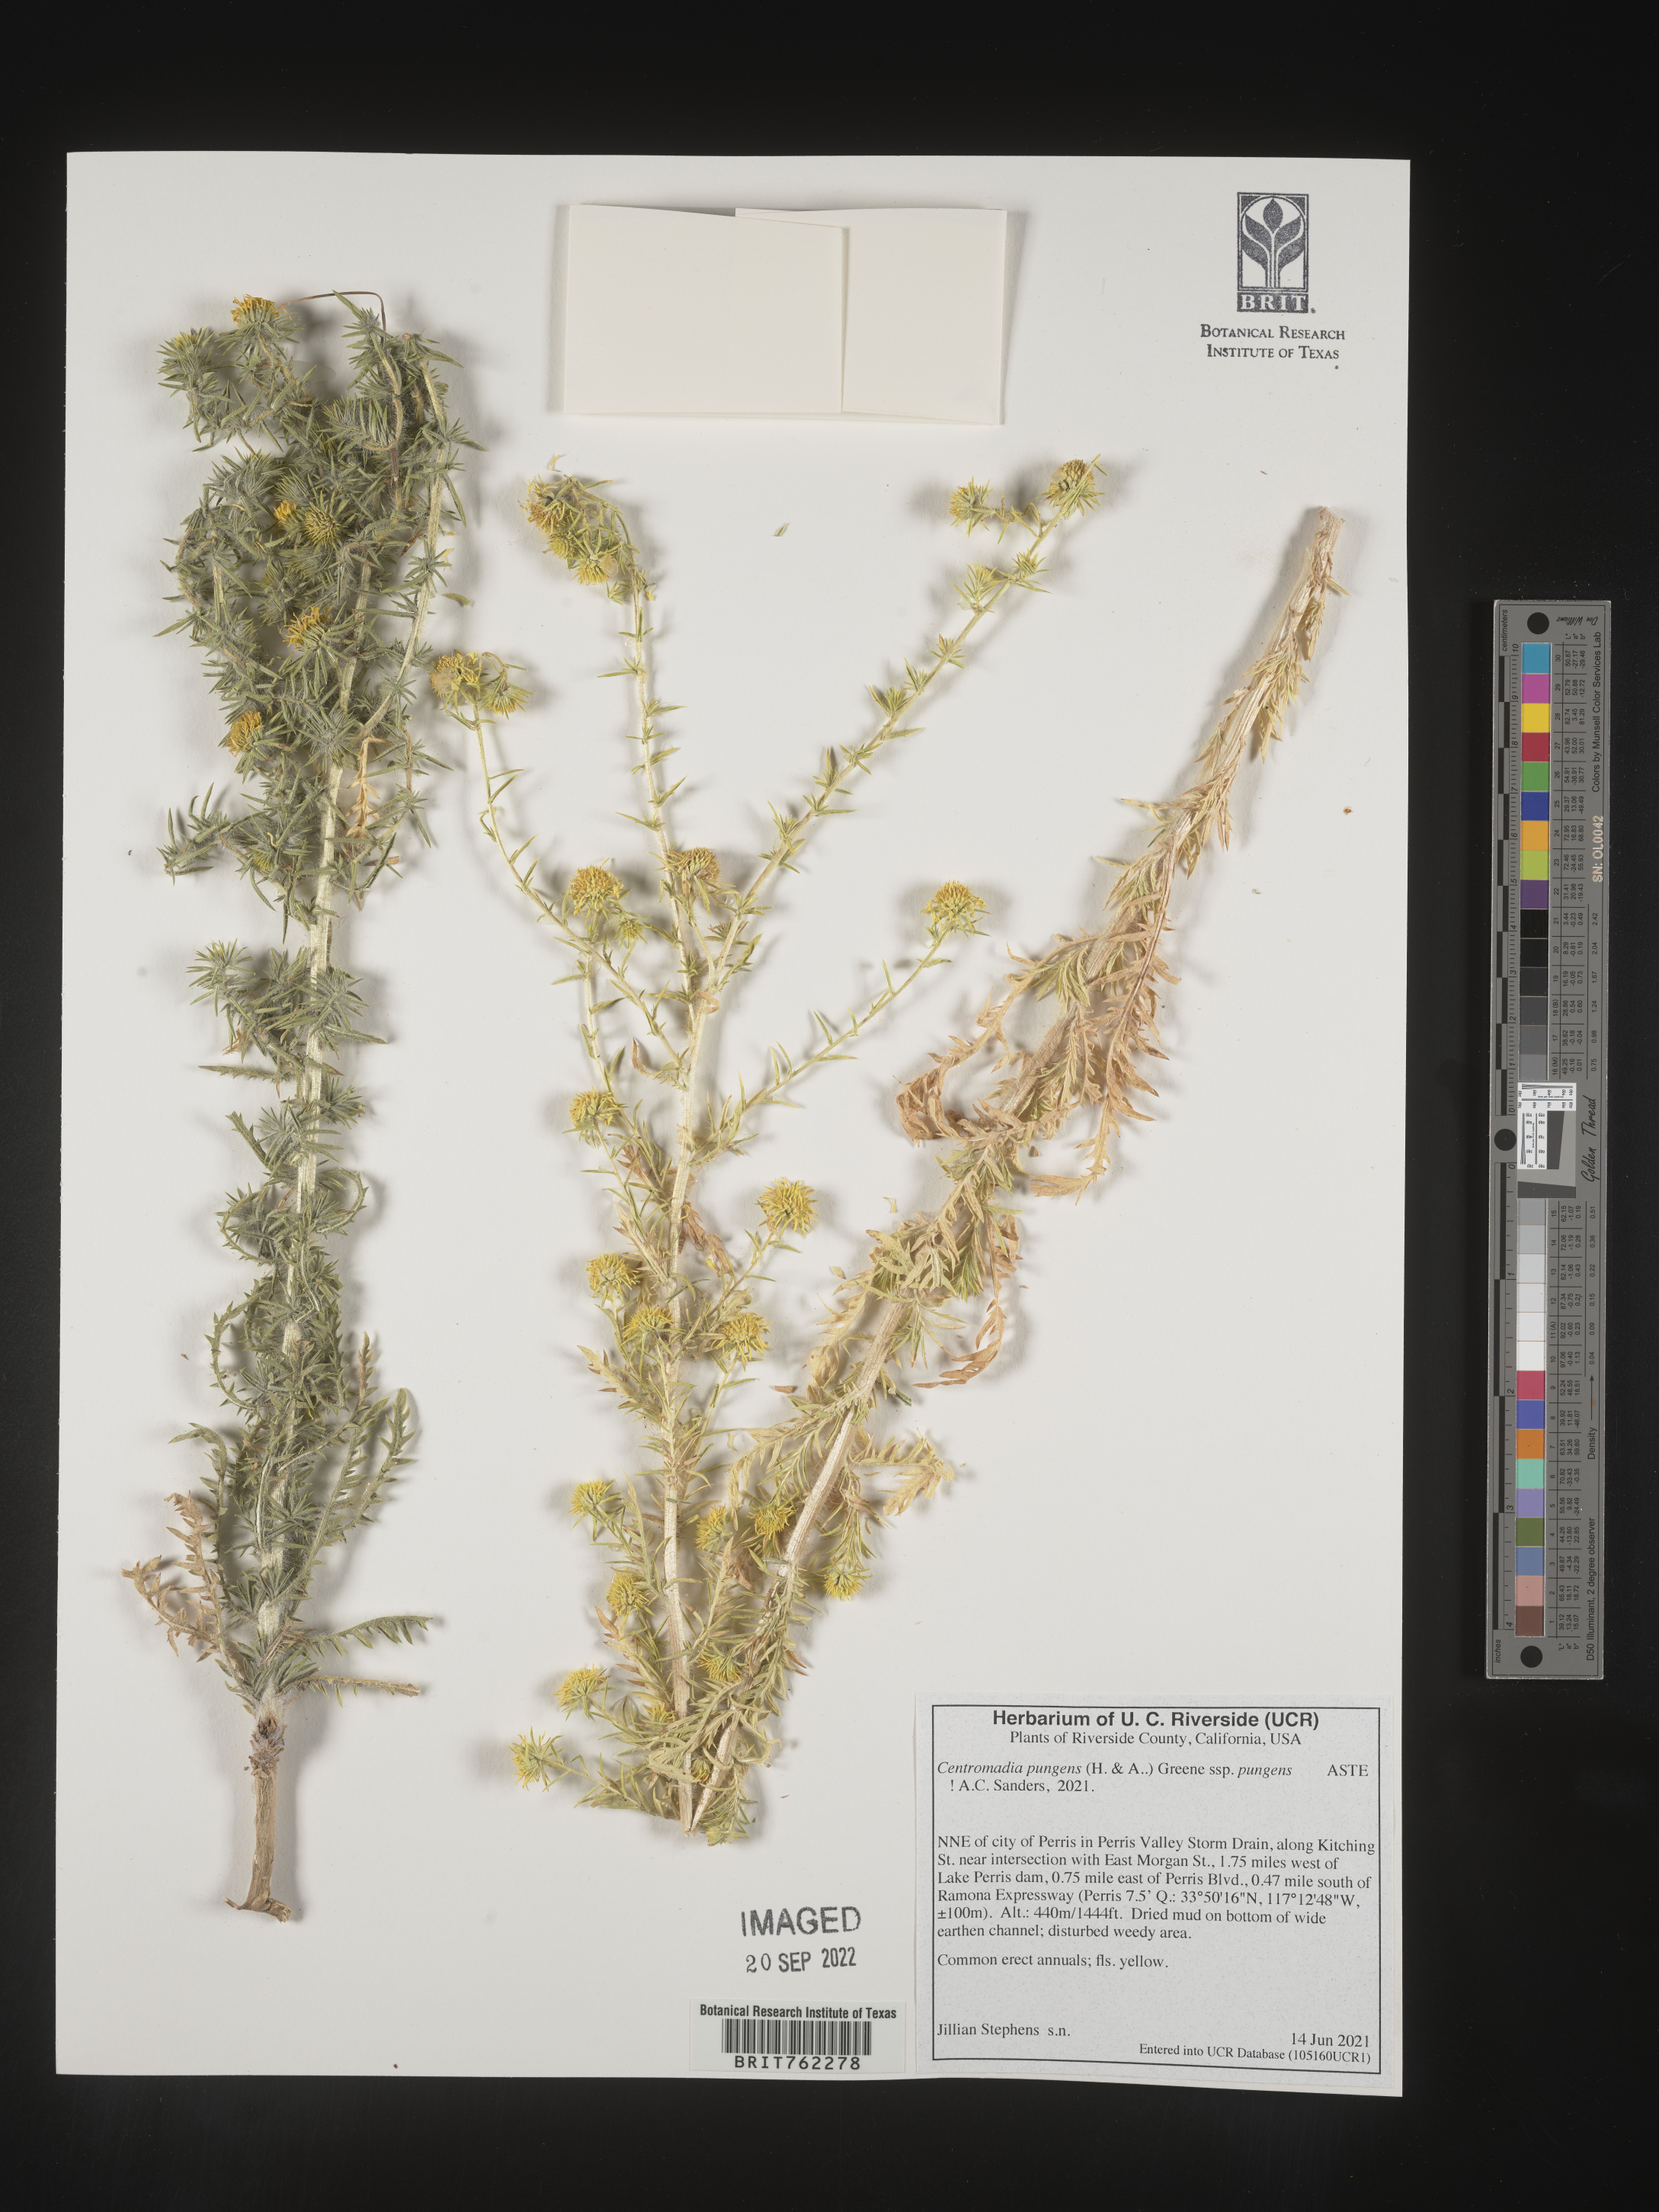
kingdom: Plantae
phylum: Tracheophyta
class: Magnoliopsida
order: Asterales
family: Asteraceae
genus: Centromadia
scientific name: Centromadia
